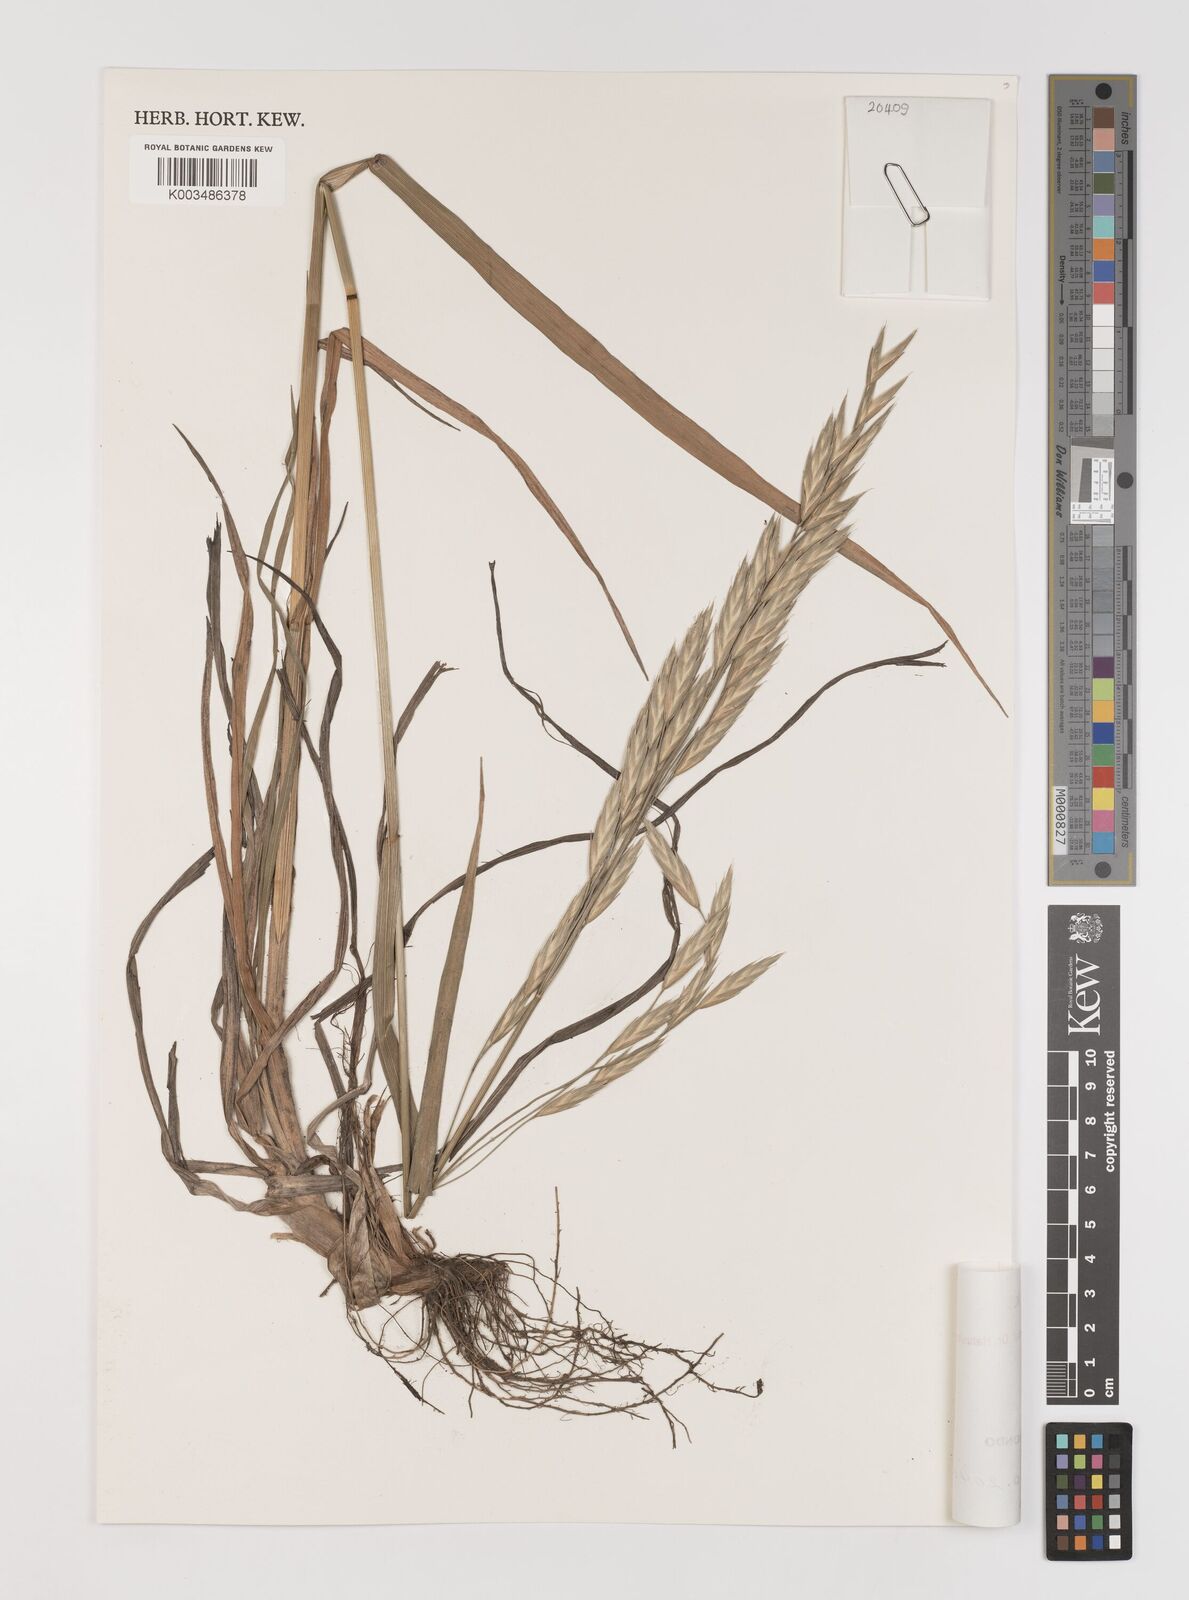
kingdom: Plantae
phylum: Tracheophyta
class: Liliopsida
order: Poales
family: Poaceae
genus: Bromus
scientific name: Bromus catharticus
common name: Rescuegrass
